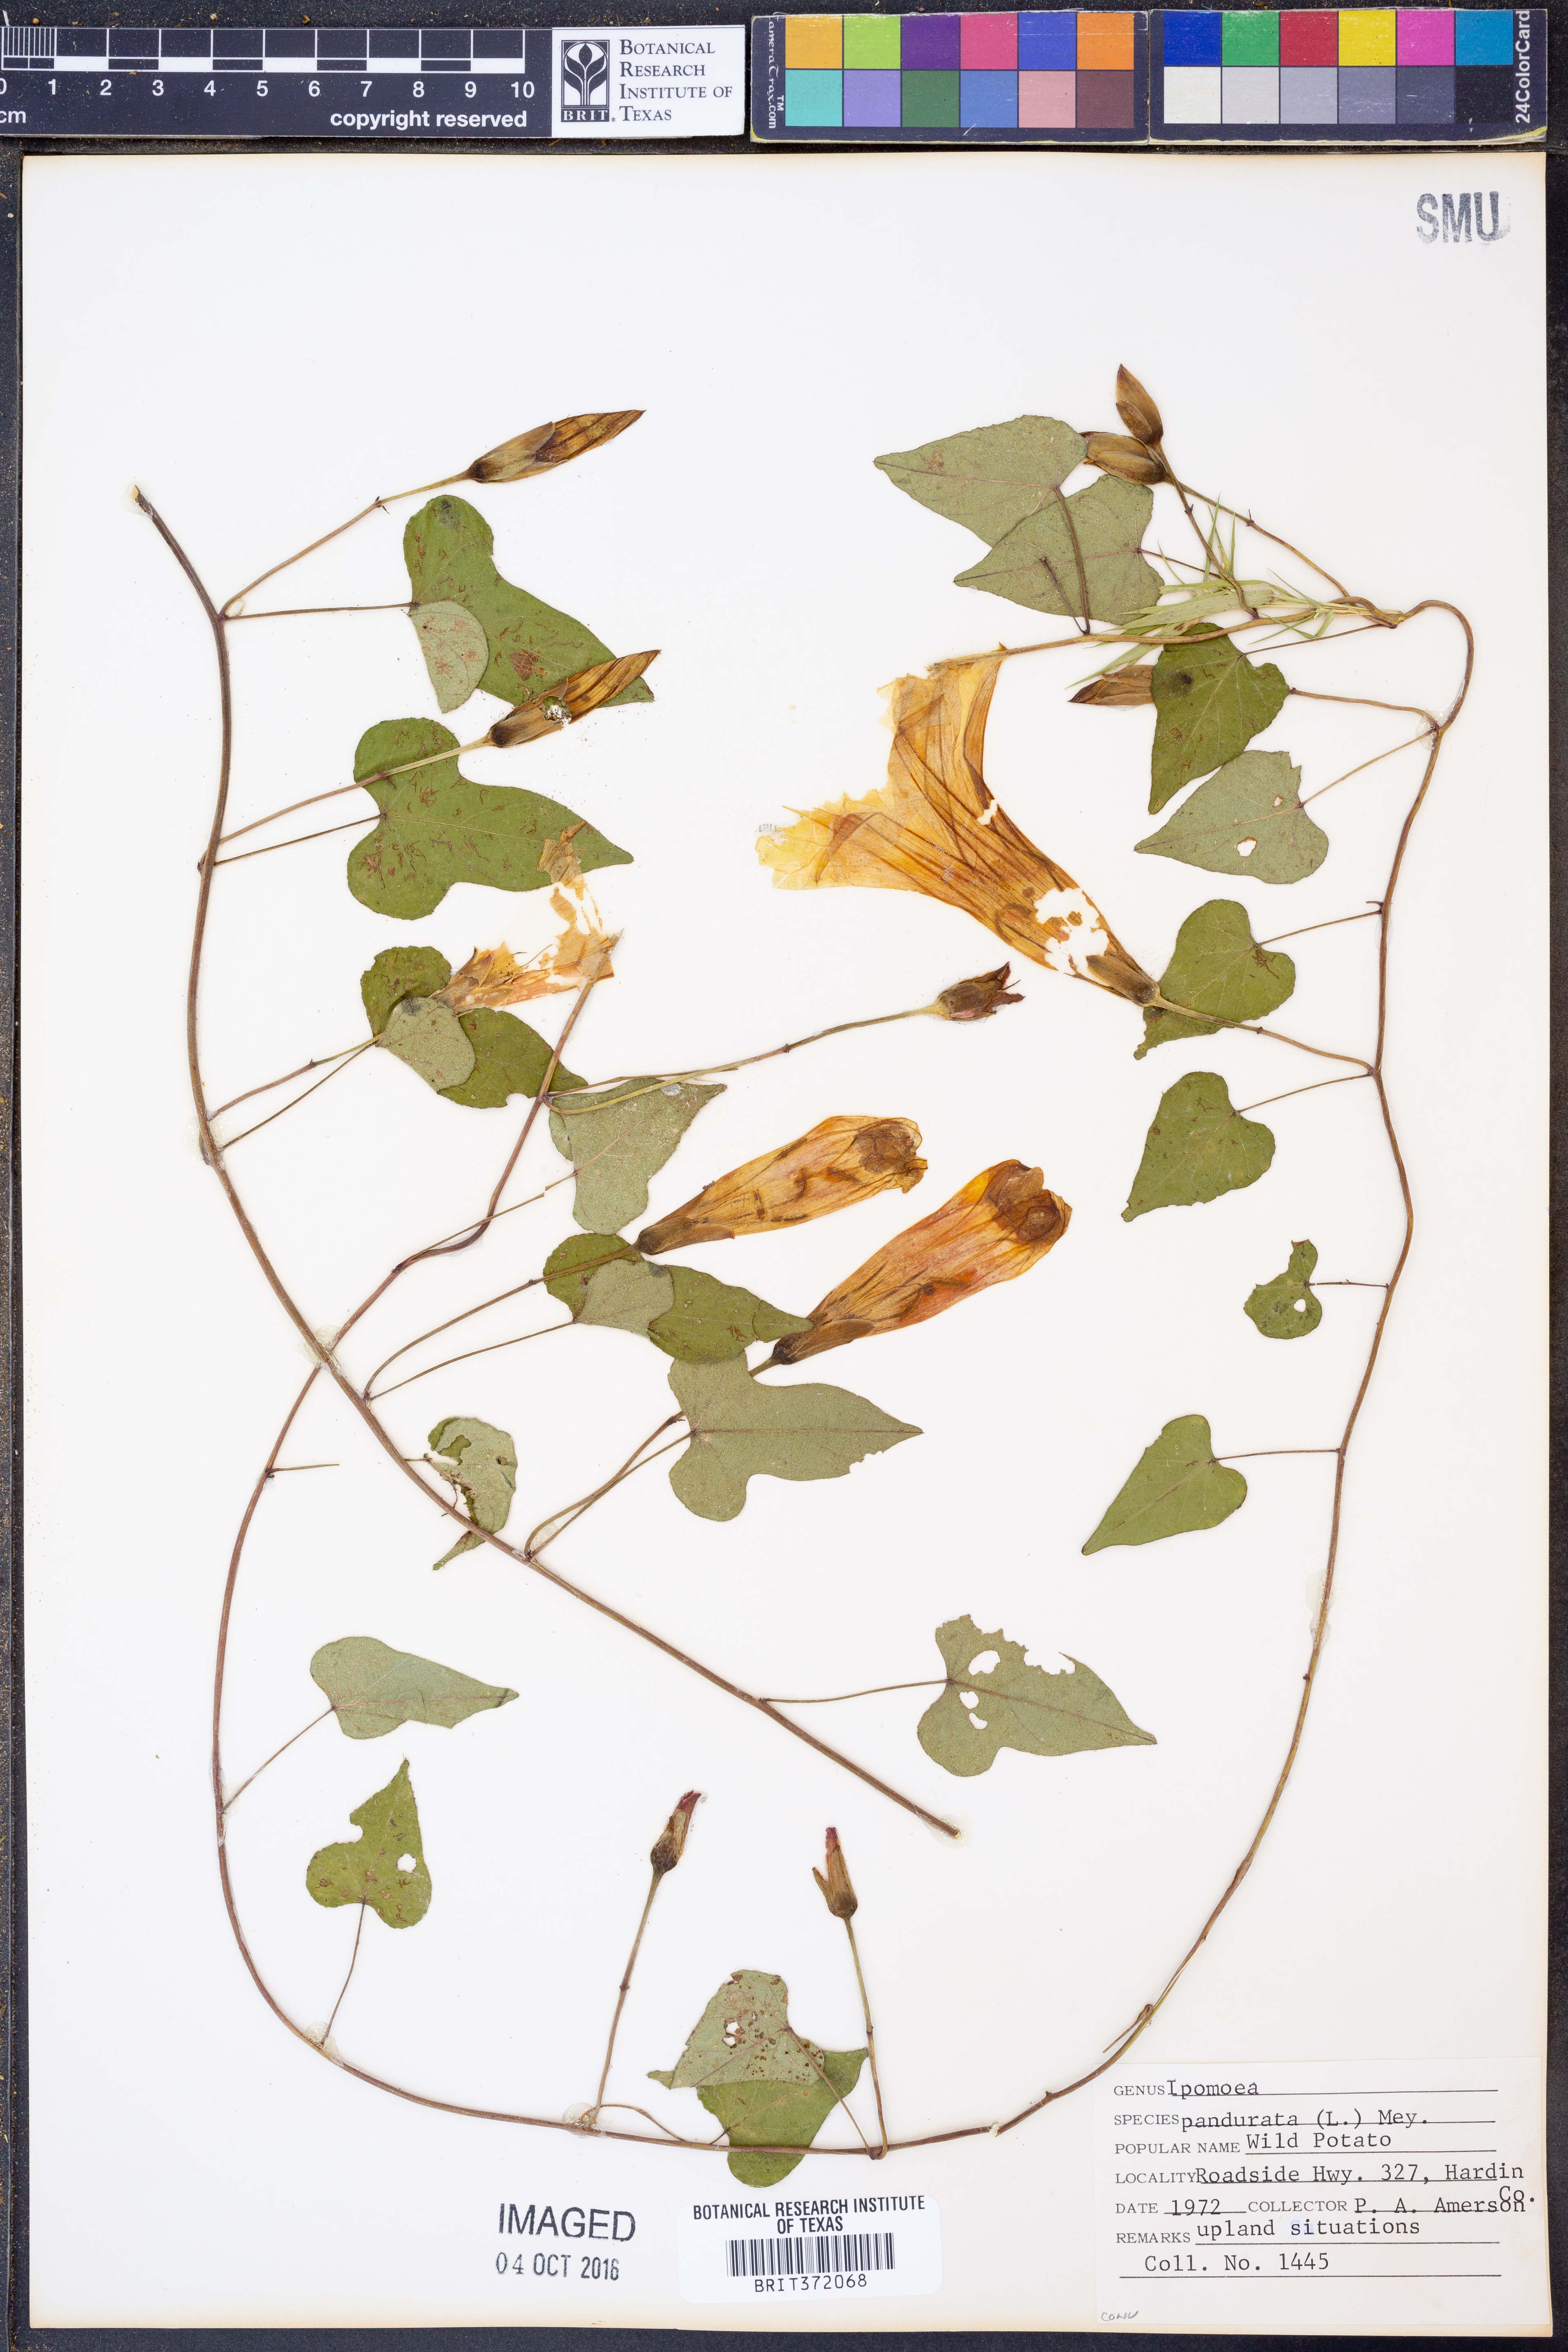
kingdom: Plantae
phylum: Tracheophyta
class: Magnoliopsida
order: Solanales
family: Convolvulaceae
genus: Ipomoea
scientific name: Ipomoea pandurata
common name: Man-of-the-earth
